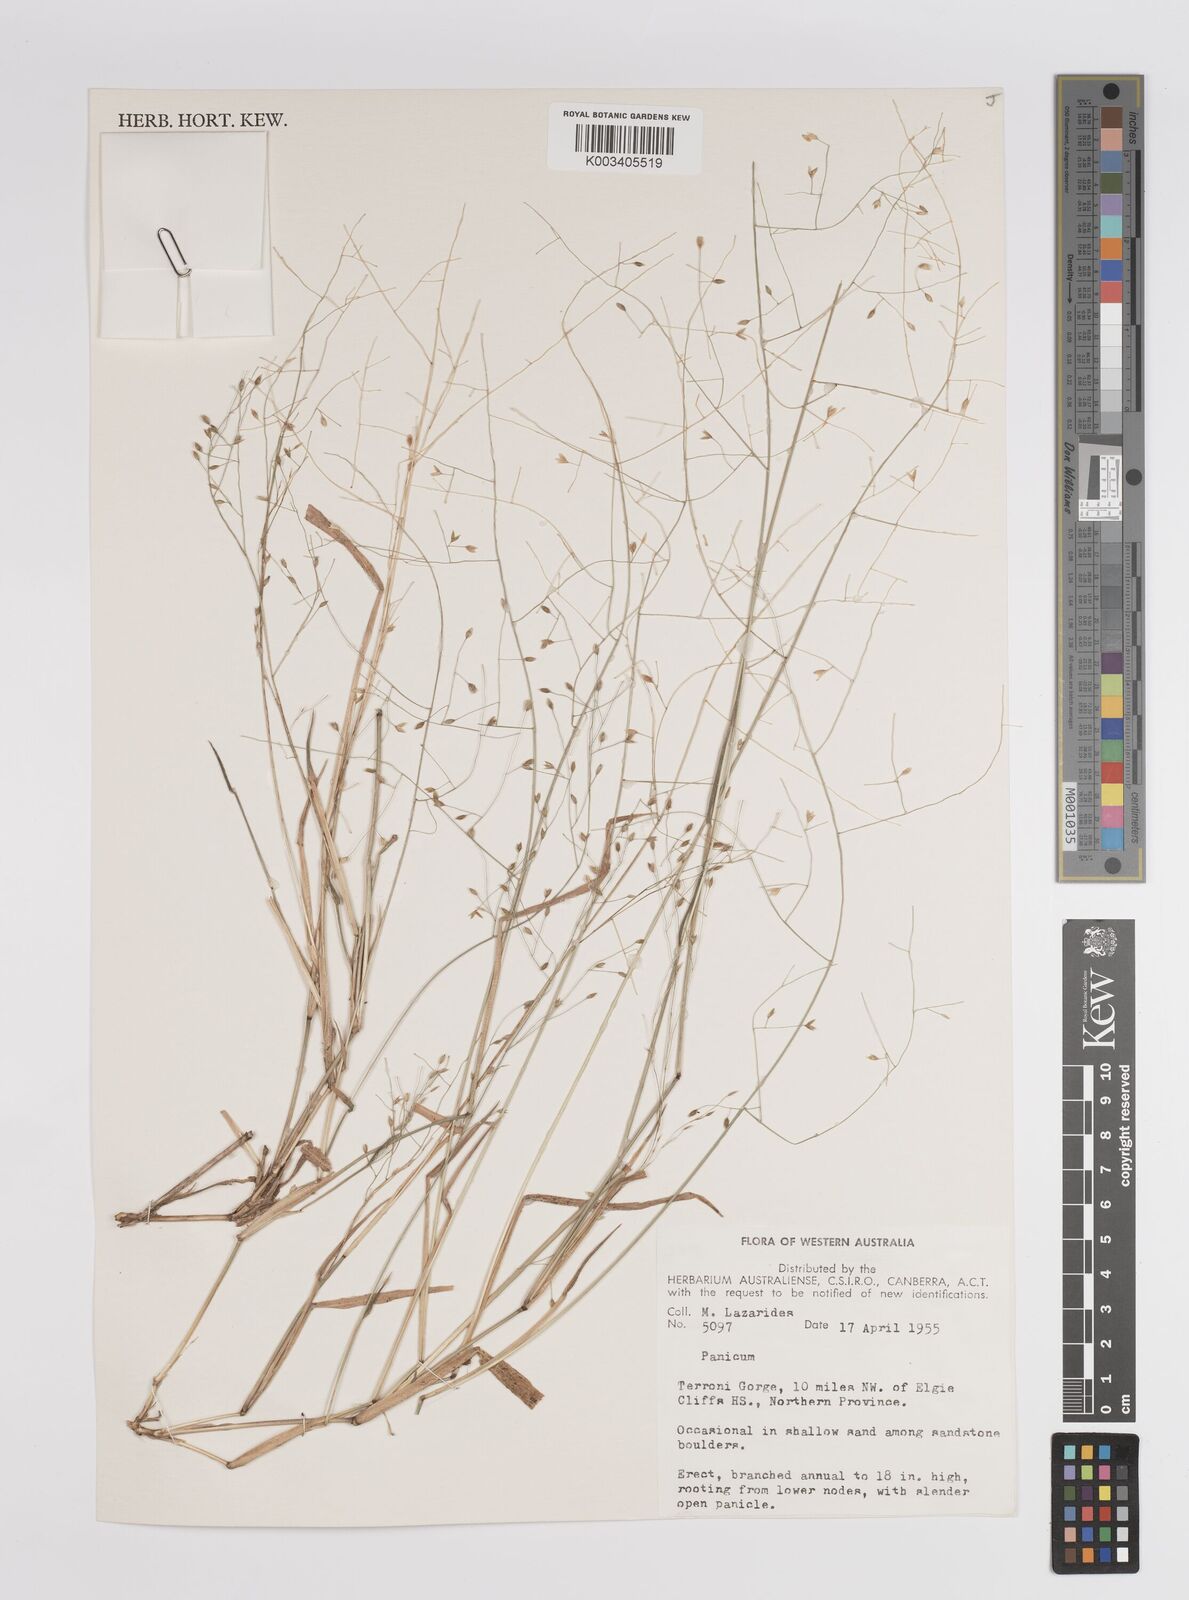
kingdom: Plantae
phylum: Tracheophyta
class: Liliopsida
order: Poales
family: Poaceae
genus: Panicum
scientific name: Panicum
